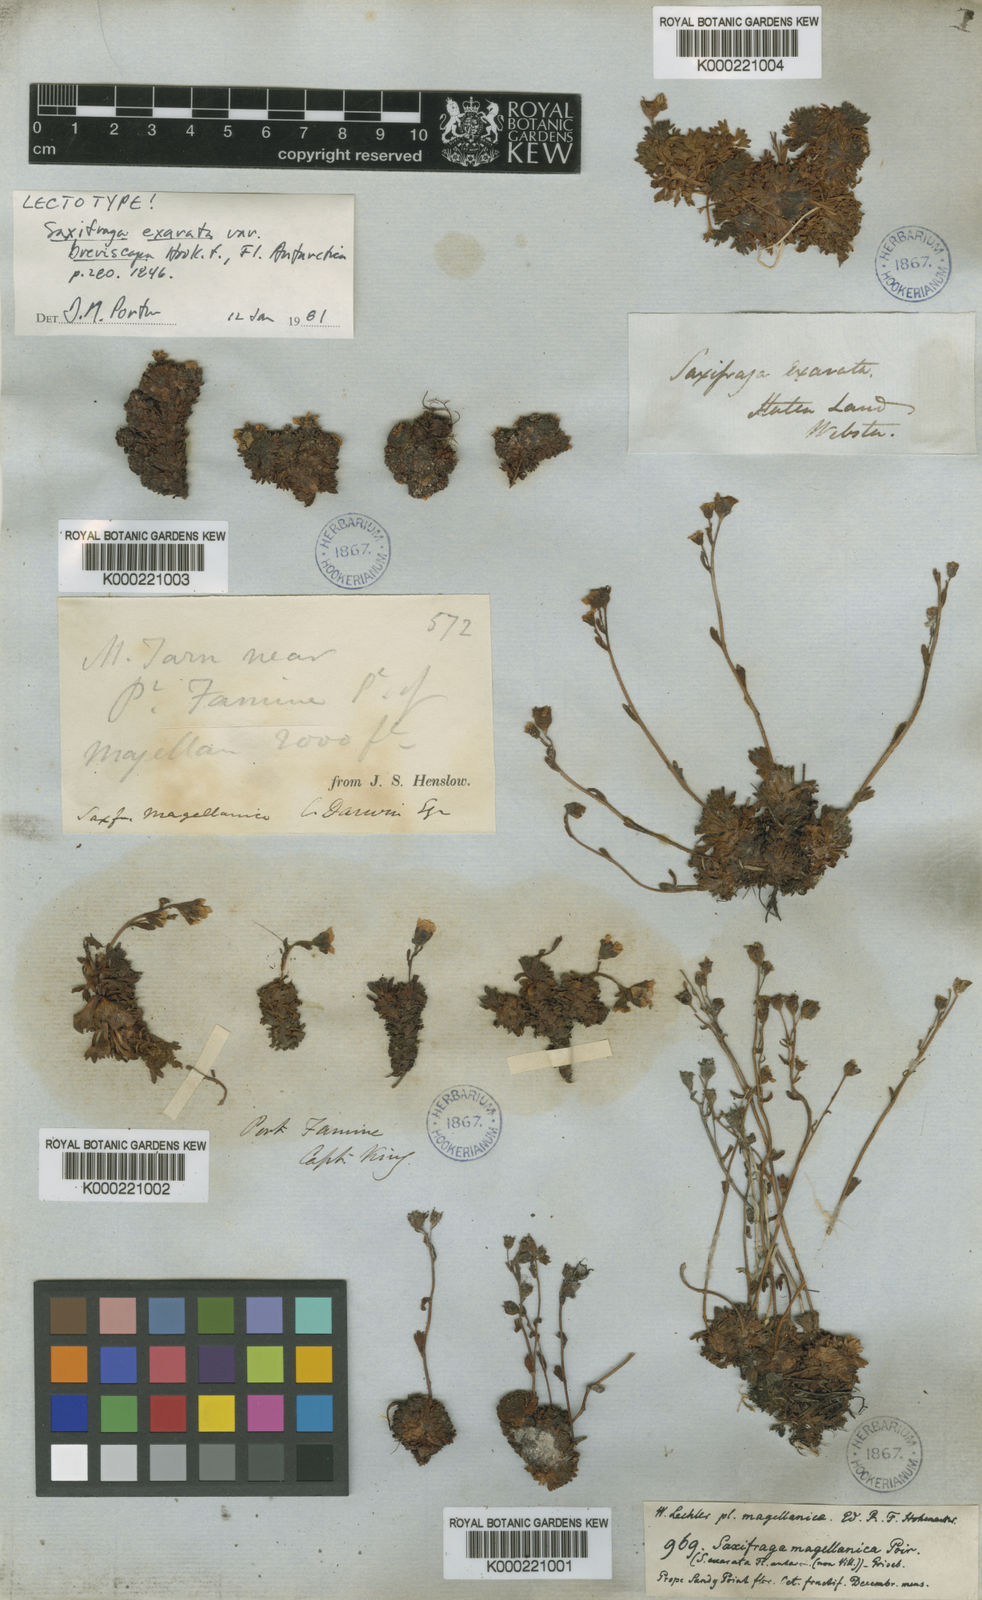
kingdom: Plantae
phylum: Tracheophyta
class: Magnoliopsida
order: Saxifragales
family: Saxifragaceae
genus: Saxifraga
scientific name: Saxifraga magellanica
